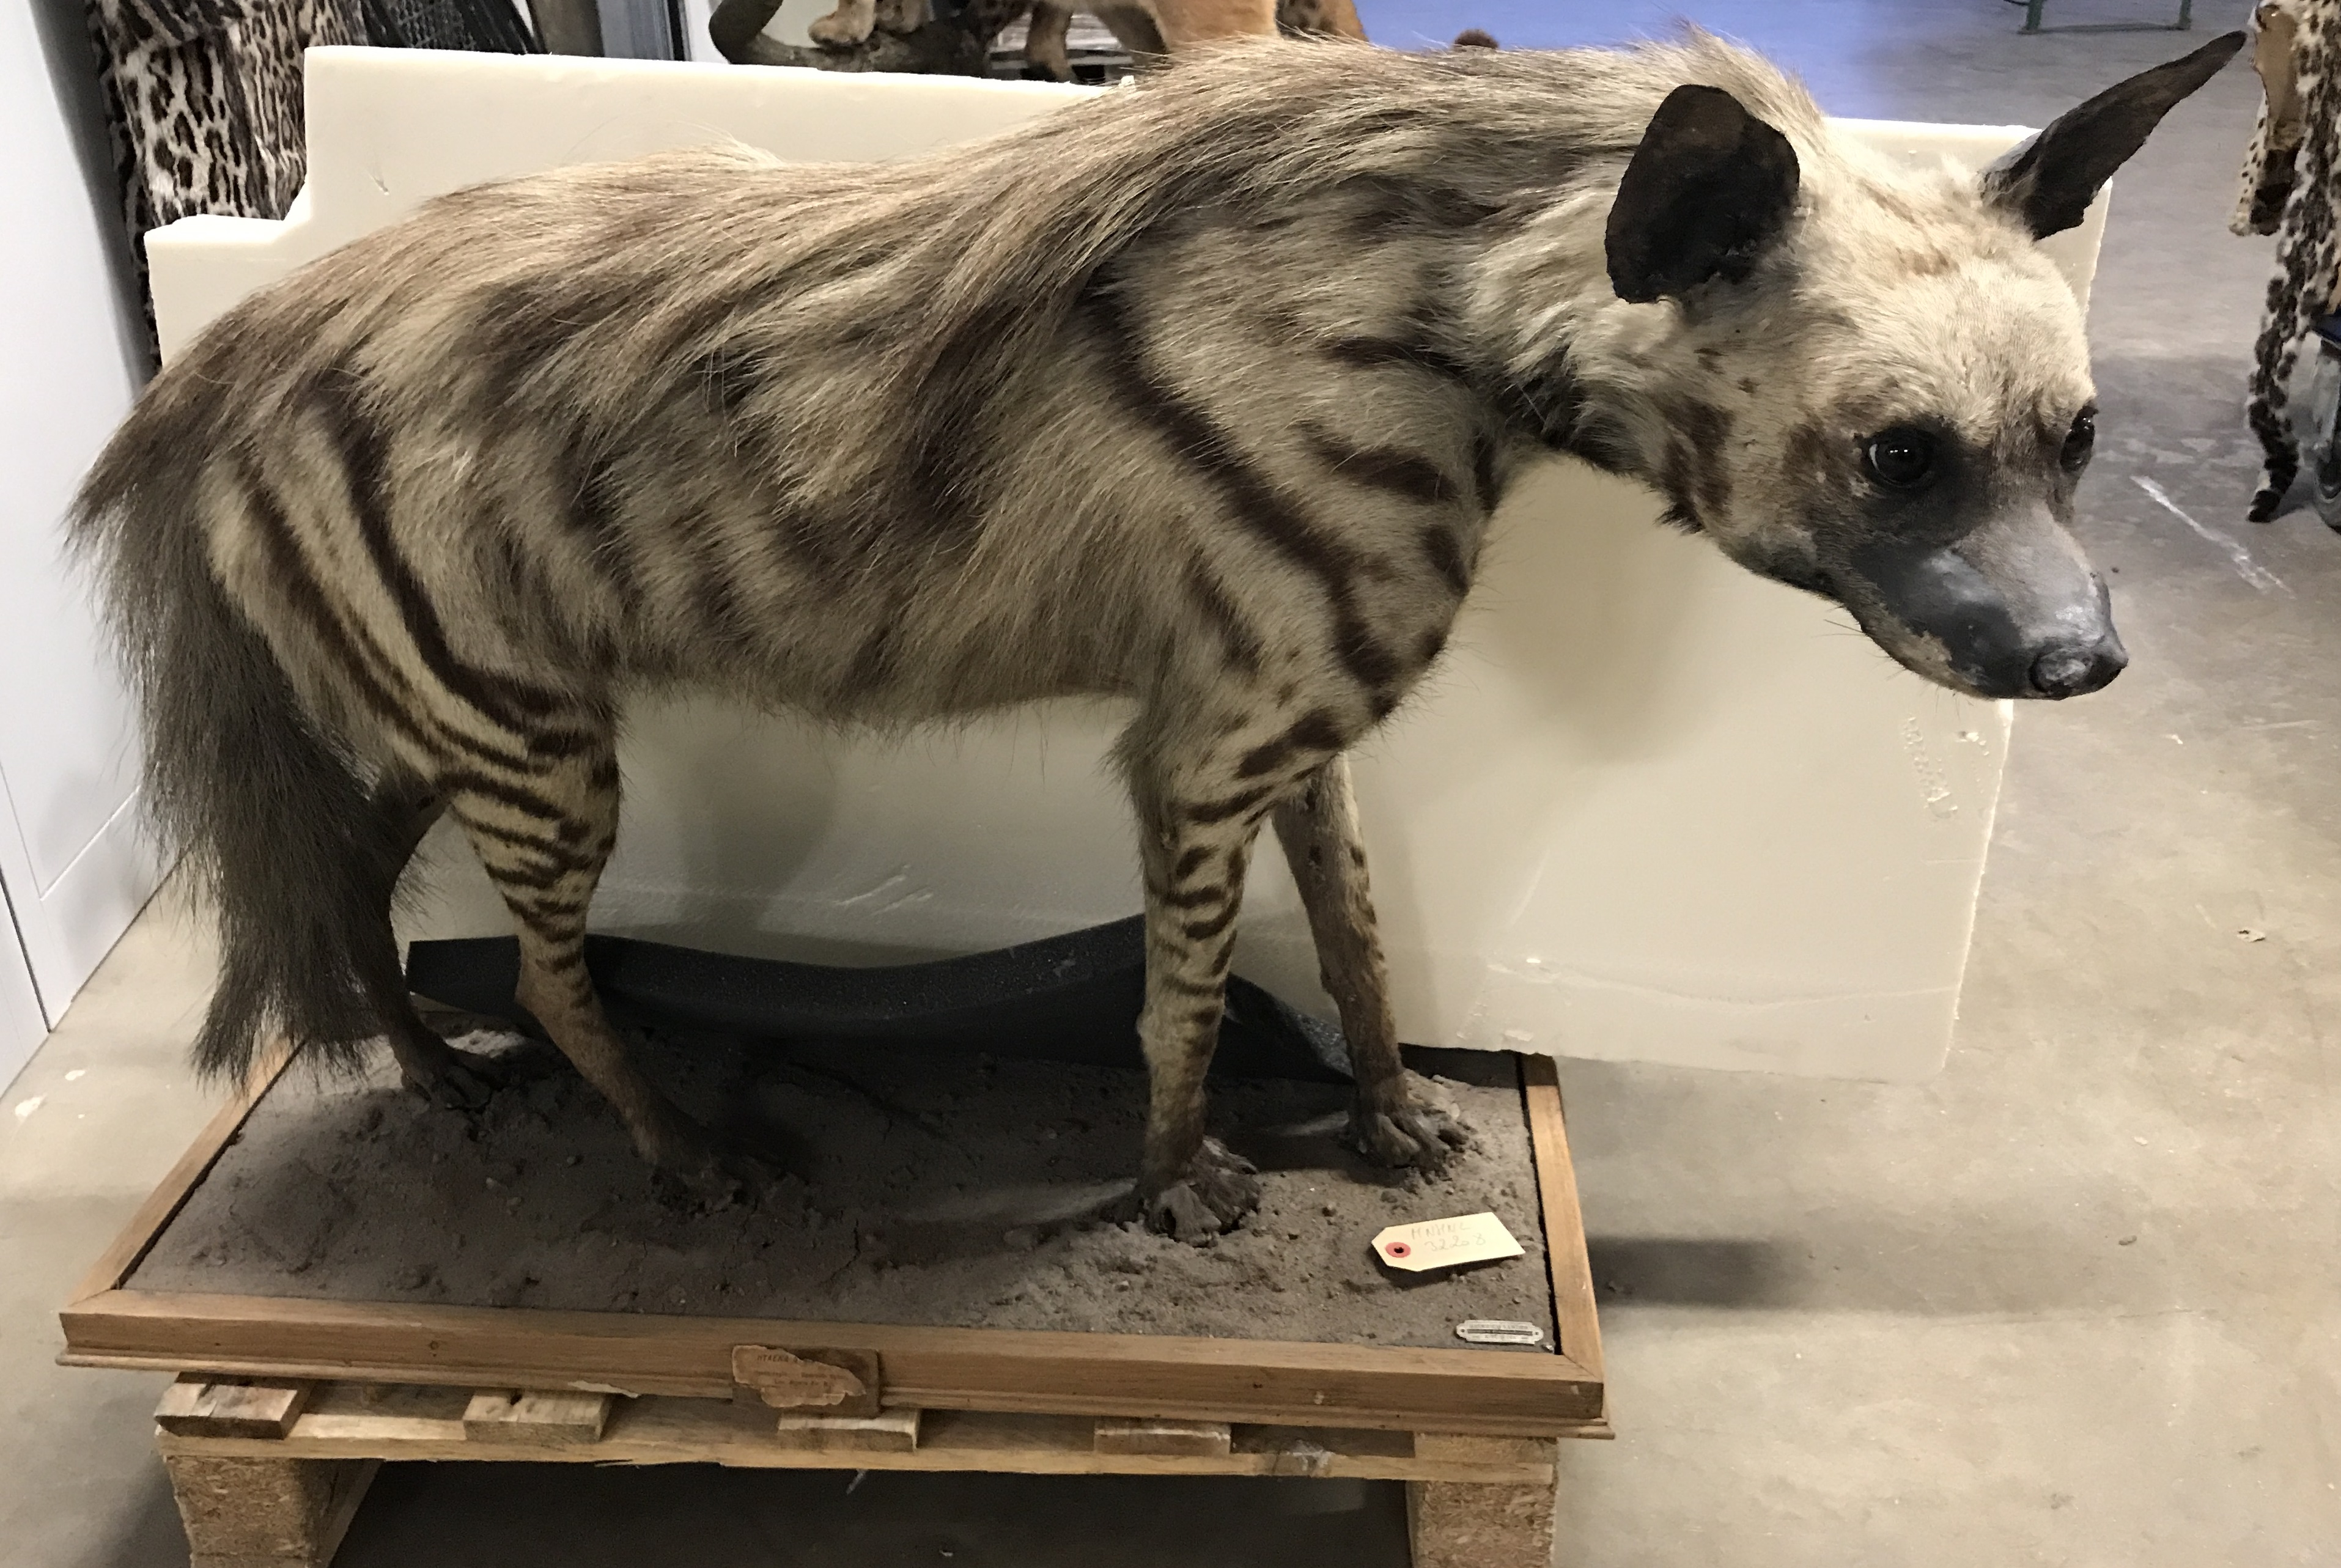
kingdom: Animalia
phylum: Chordata
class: Mammalia
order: Carnivora
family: Hyaenidae
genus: Hyaena
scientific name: Hyaena hyaena
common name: Striped hyaena
